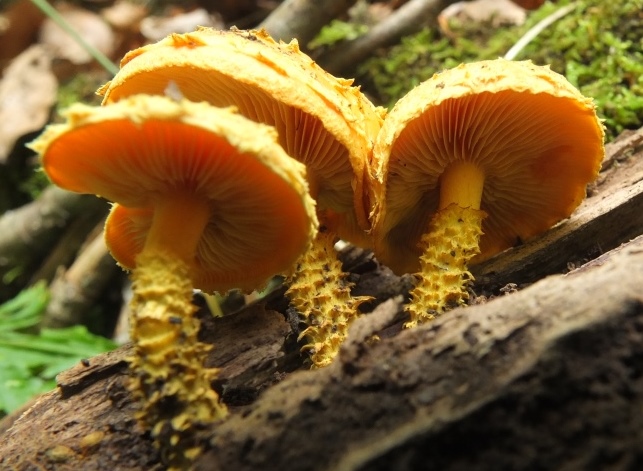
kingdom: Fungi
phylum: Basidiomycota
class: Agaricomycetes
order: Agaricales
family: Strophariaceae
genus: Pholiota
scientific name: Pholiota flammans
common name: flamme-skælhat
